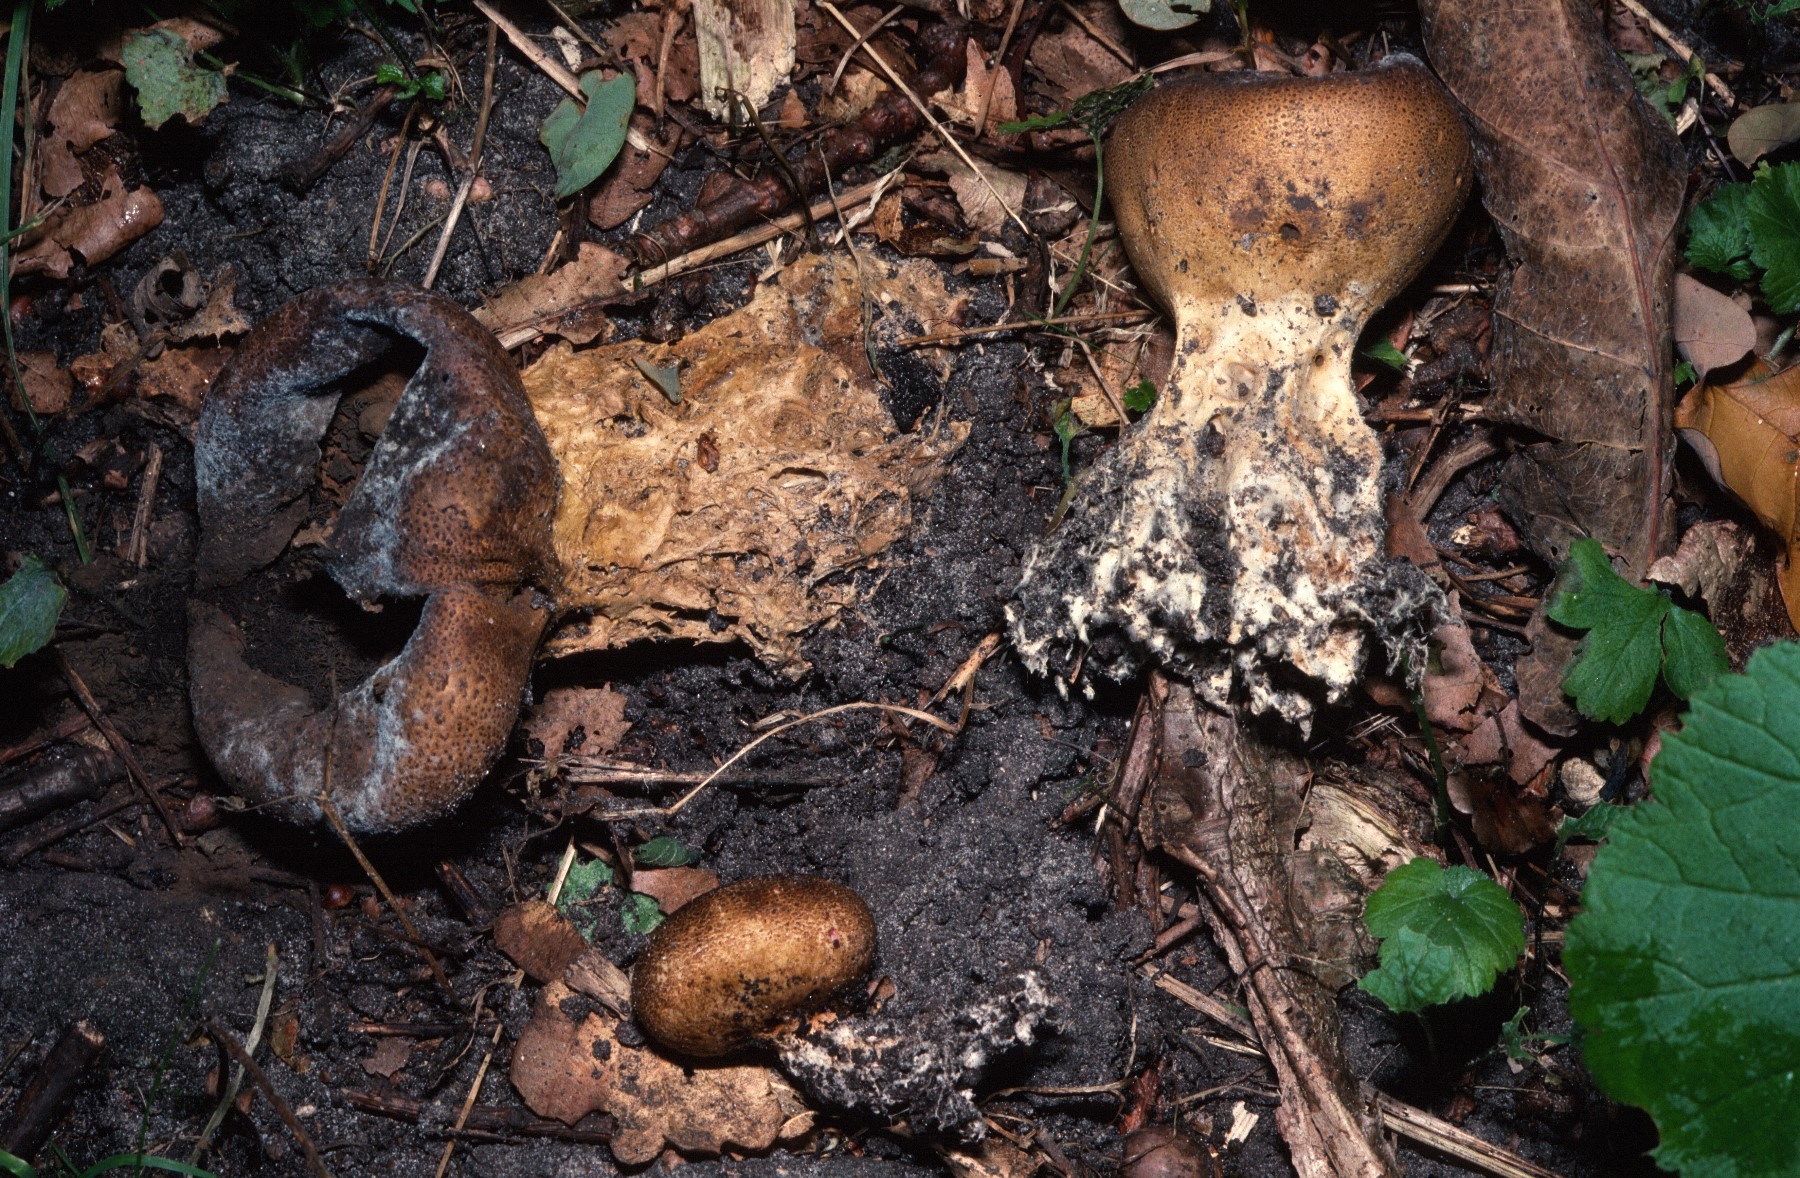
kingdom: Fungi
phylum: Basidiomycota
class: Agaricomycetes
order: Boletales
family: Sclerodermataceae
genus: Scleroderma
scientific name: Scleroderma verrucosum
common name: stilket bruskbold
